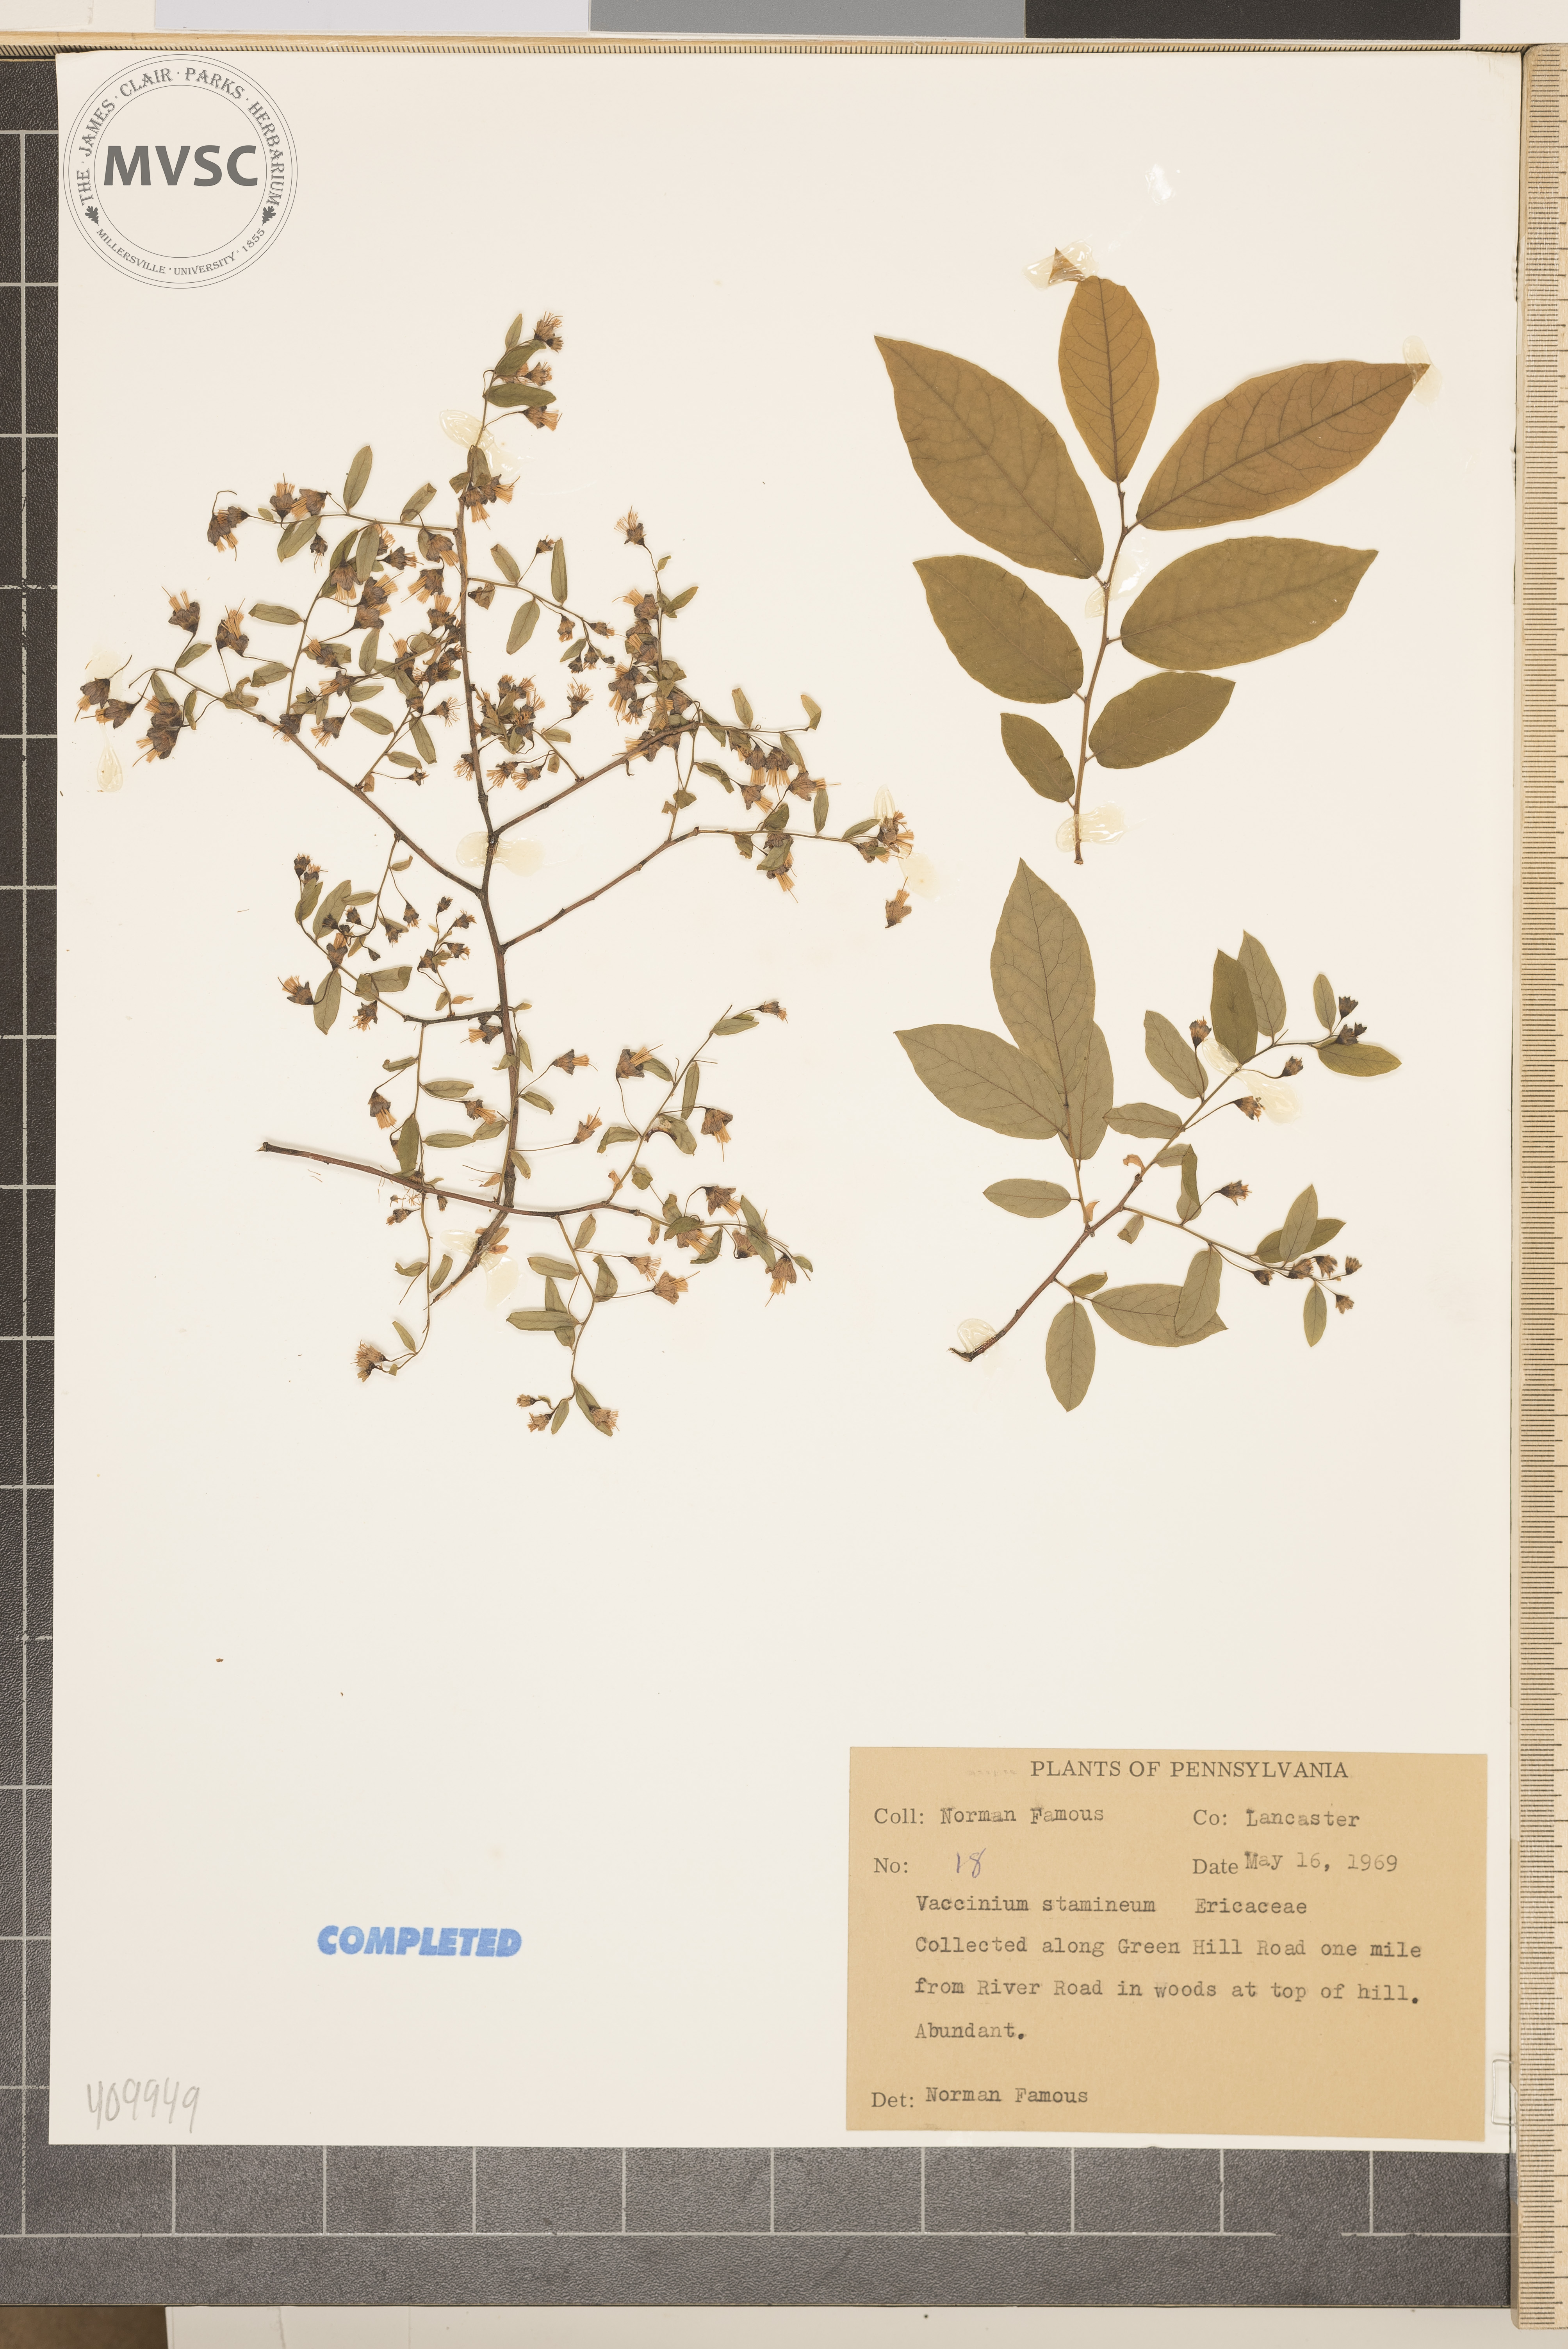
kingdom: Plantae
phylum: Tracheophyta
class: Magnoliopsida
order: Ericales
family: Ericaceae
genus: Vaccinium
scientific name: Vaccinium stamineum
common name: Deerberry
